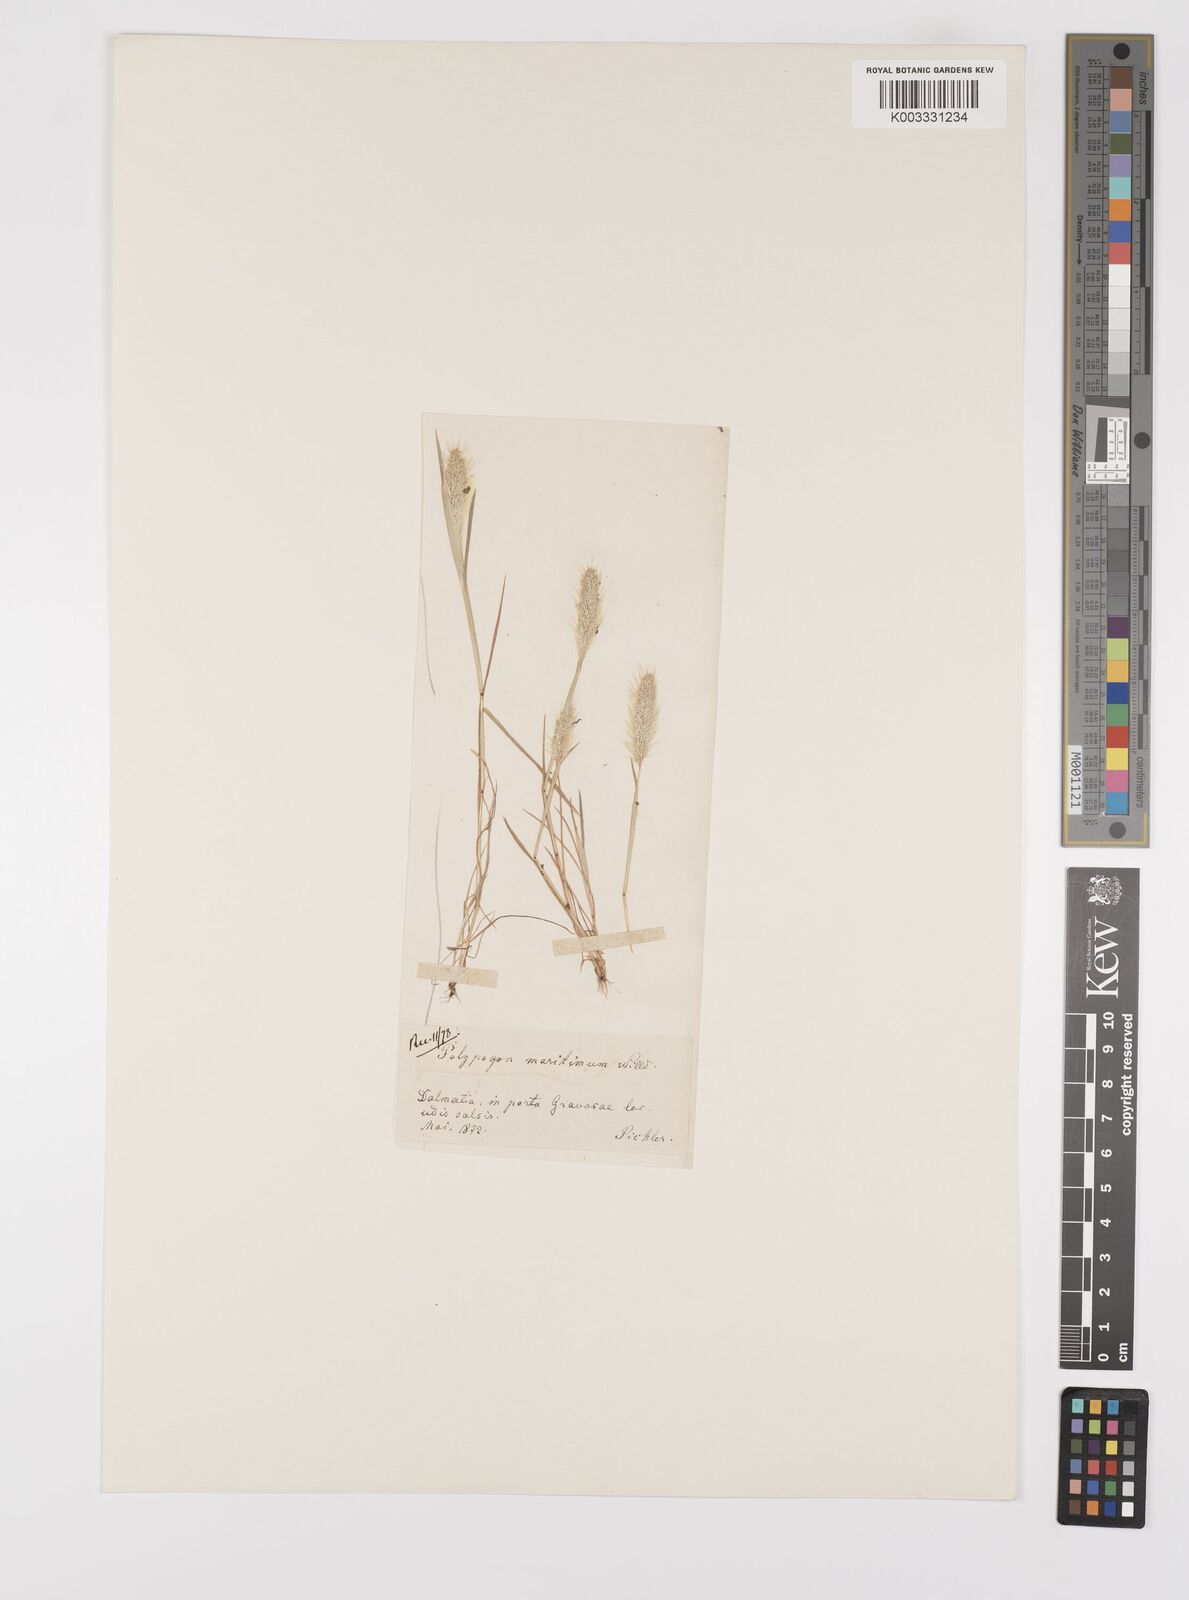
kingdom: Plantae
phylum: Tracheophyta
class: Liliopsida
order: Poales
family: Poaceae
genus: Polypogon
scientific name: Polypogon maritimus
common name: Mediterranean rabbitsfoot grass
